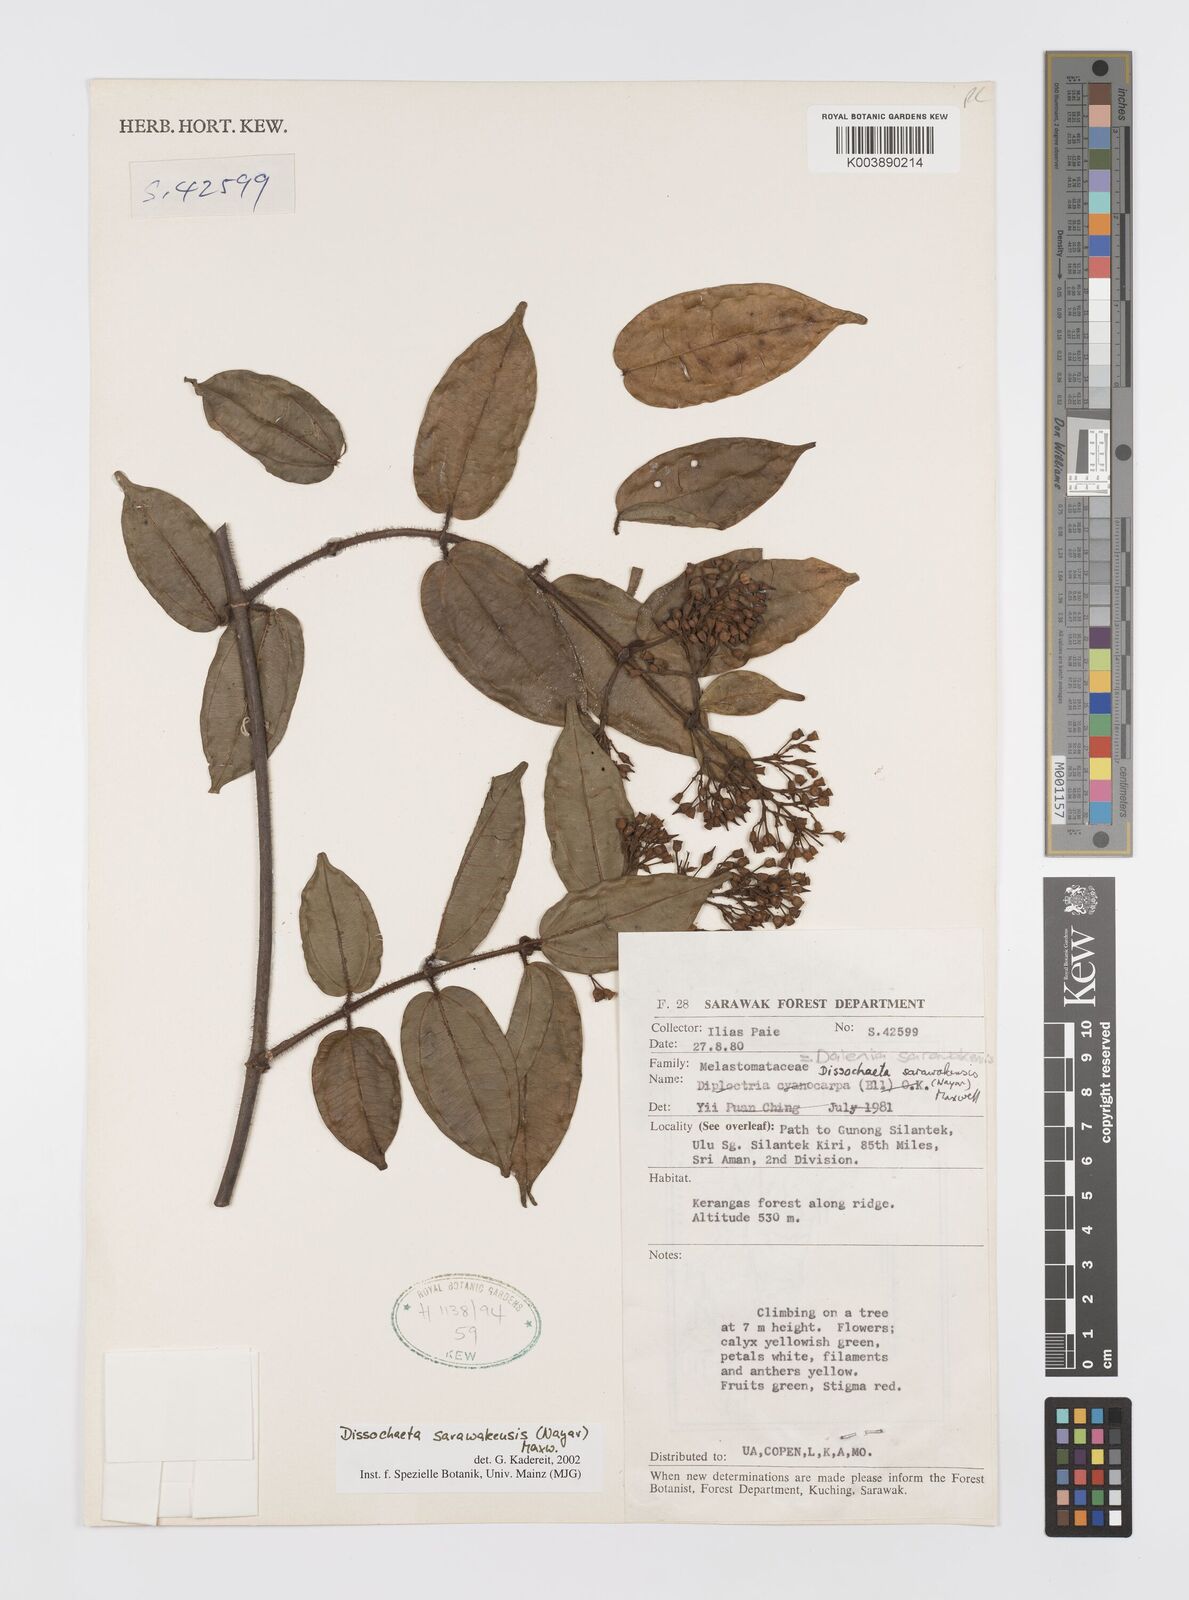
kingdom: Plantae
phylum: Tracheophyta
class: Magnoliopsida
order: Myrtales
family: Melastomataceae
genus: Dalenia
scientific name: Dalenia
